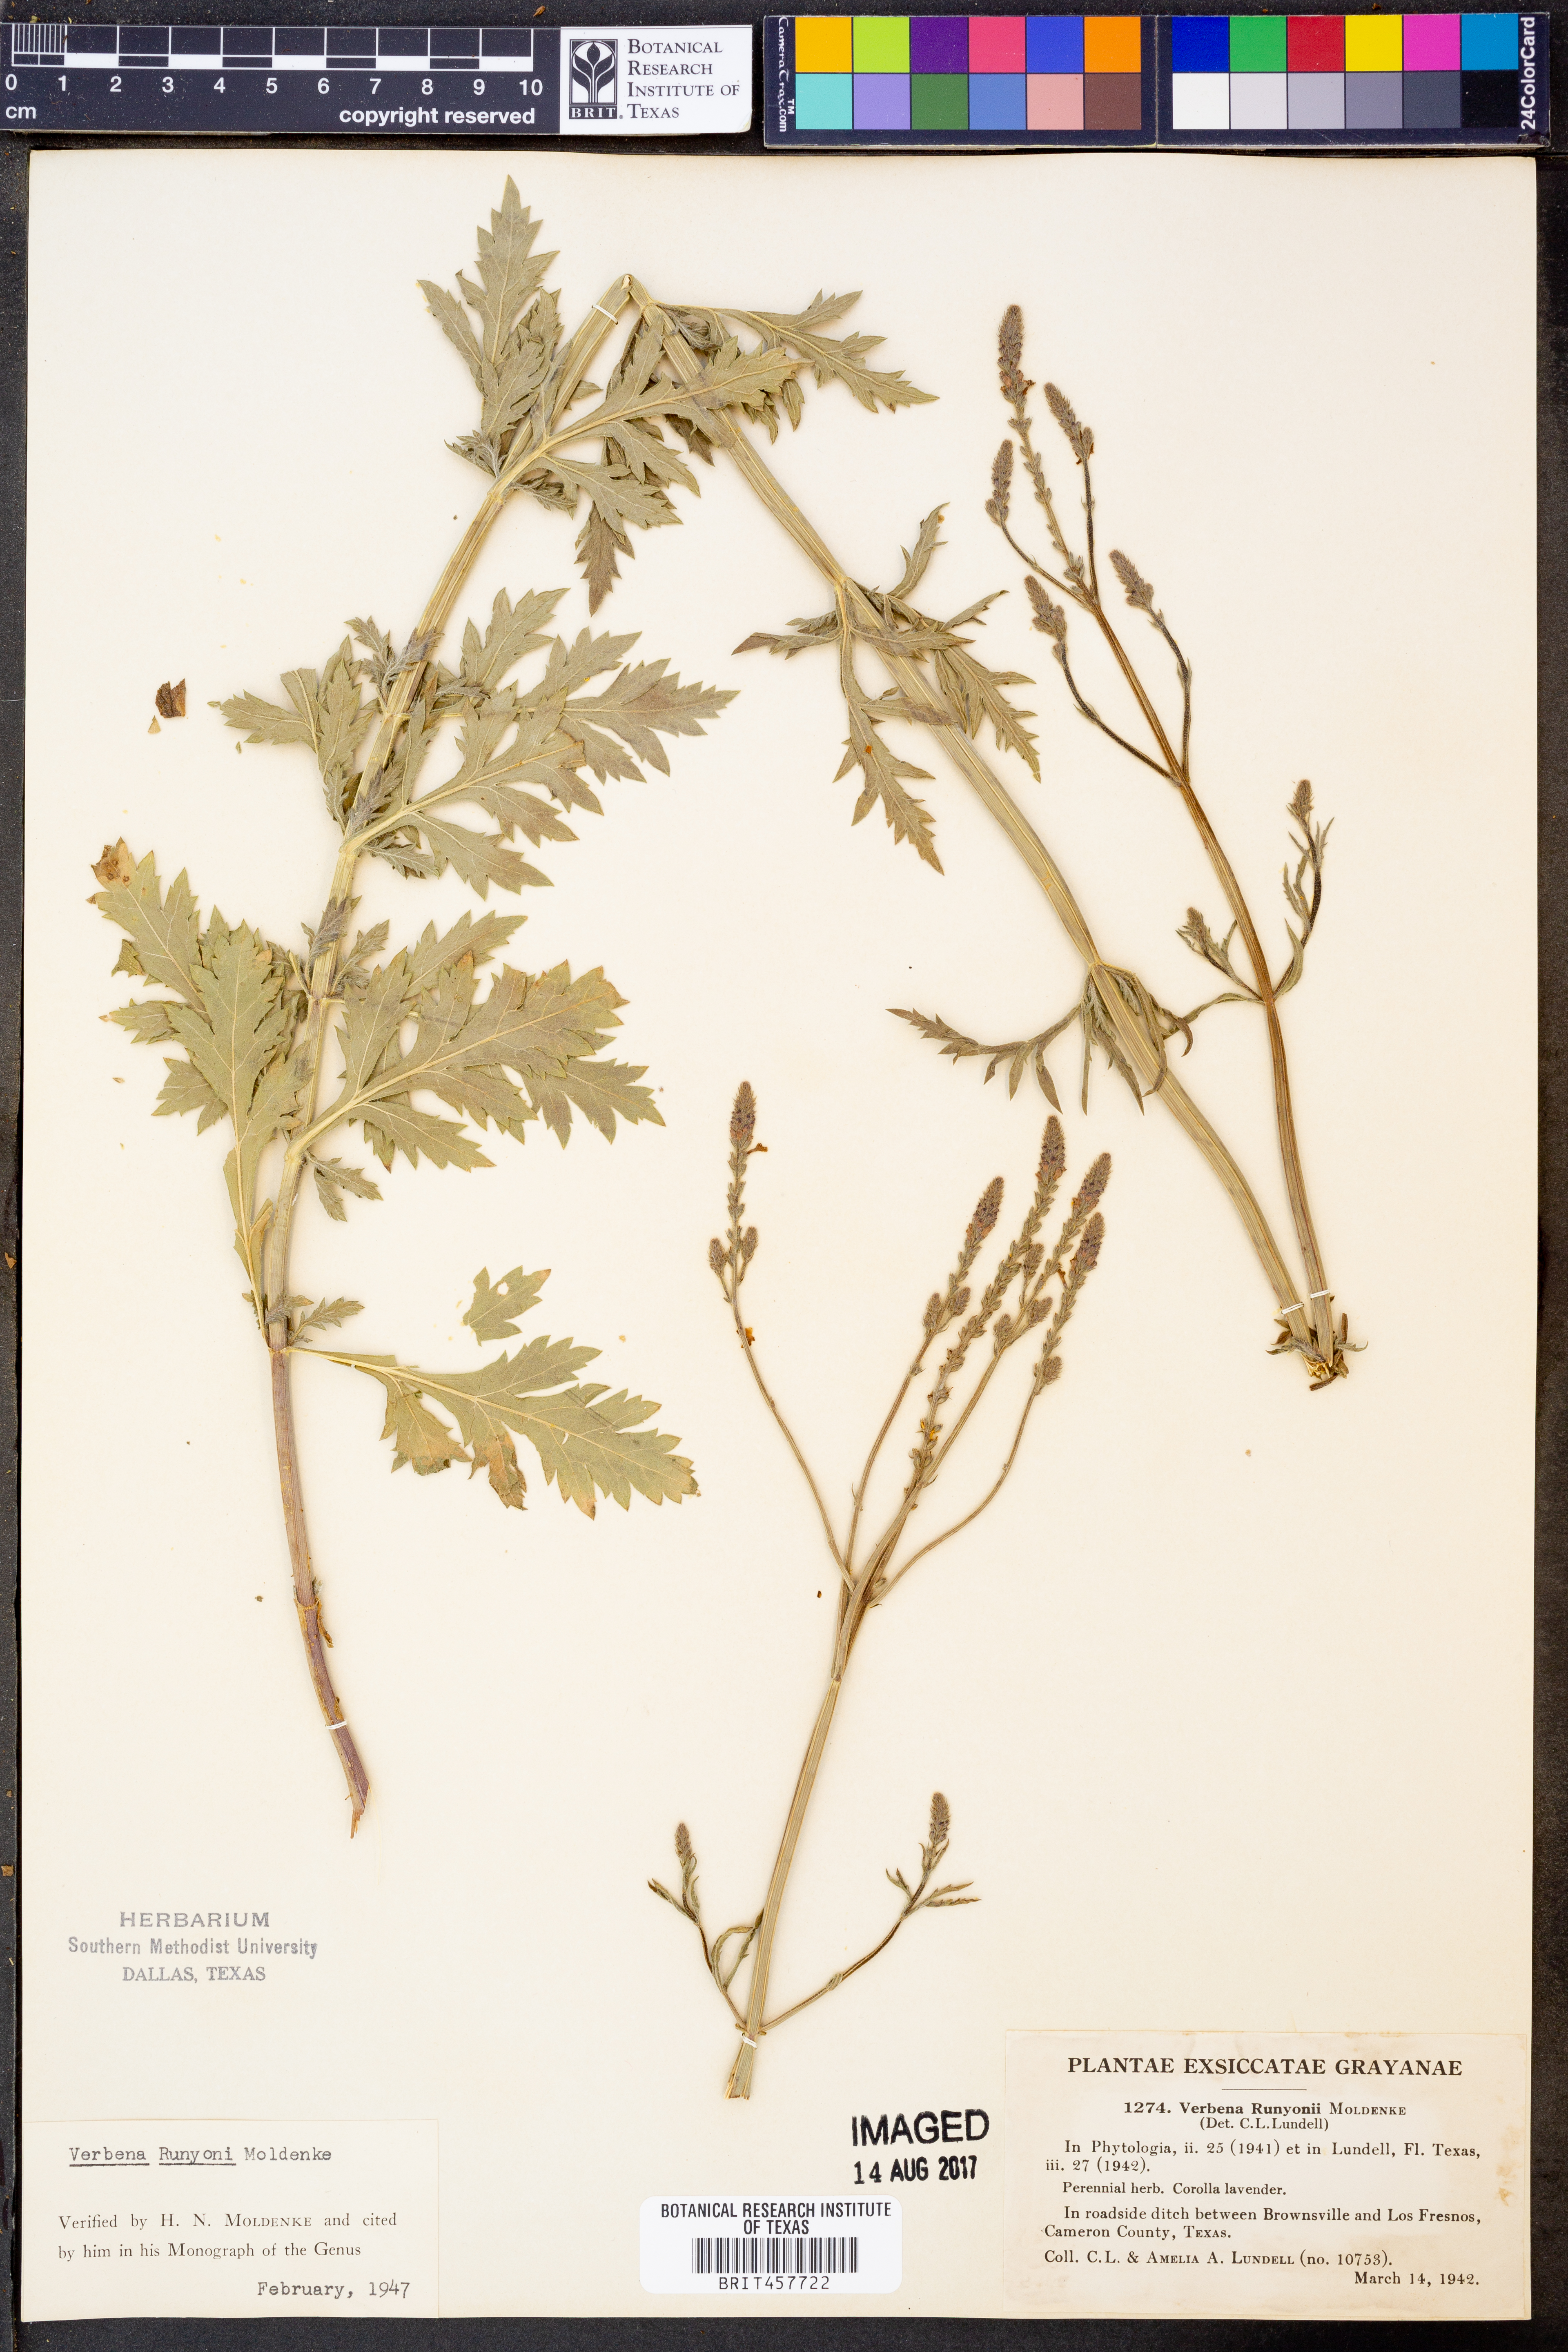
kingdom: Plantae
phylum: Tracheophyta
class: Magnoliopsida
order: Lamiales
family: Verbenaceae
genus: Verbena
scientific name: Verbena neomexicana
